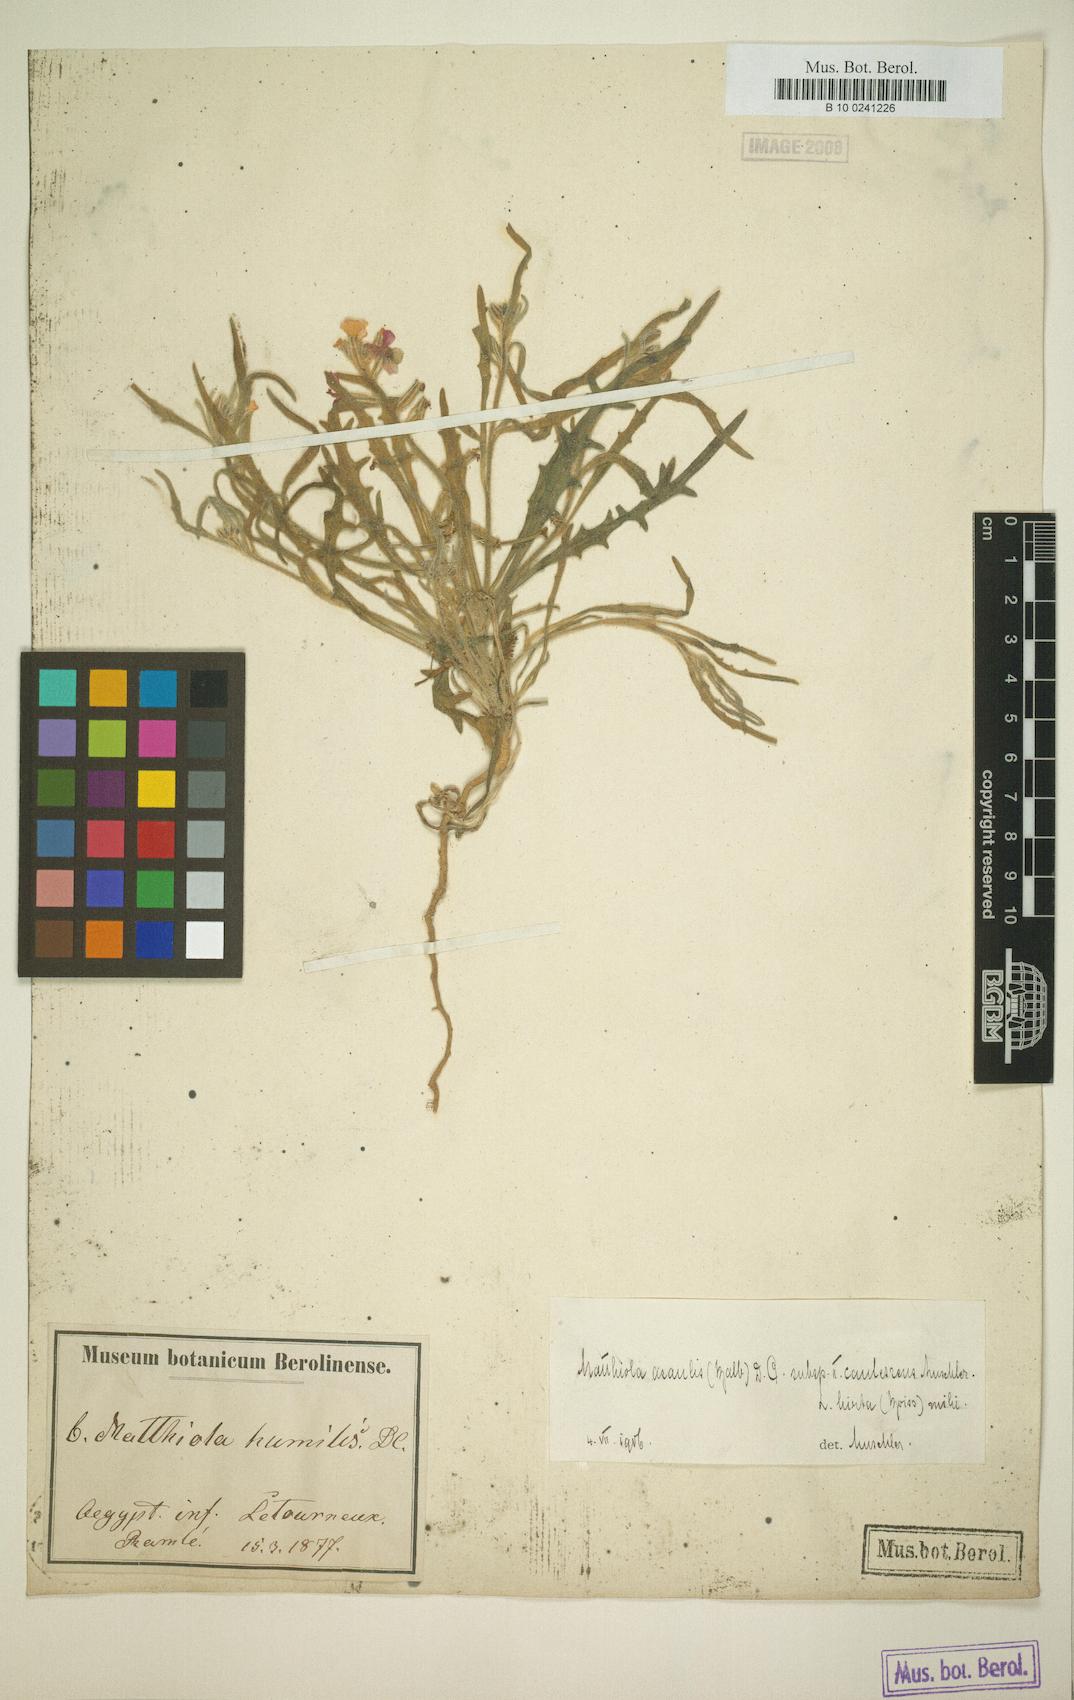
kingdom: Plantae
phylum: Tracheophyta
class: Magnoliopsida
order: Brassicales
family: Brassicaceae
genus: Matthiola
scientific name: Matthiola longipetala
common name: Night-scented stock
